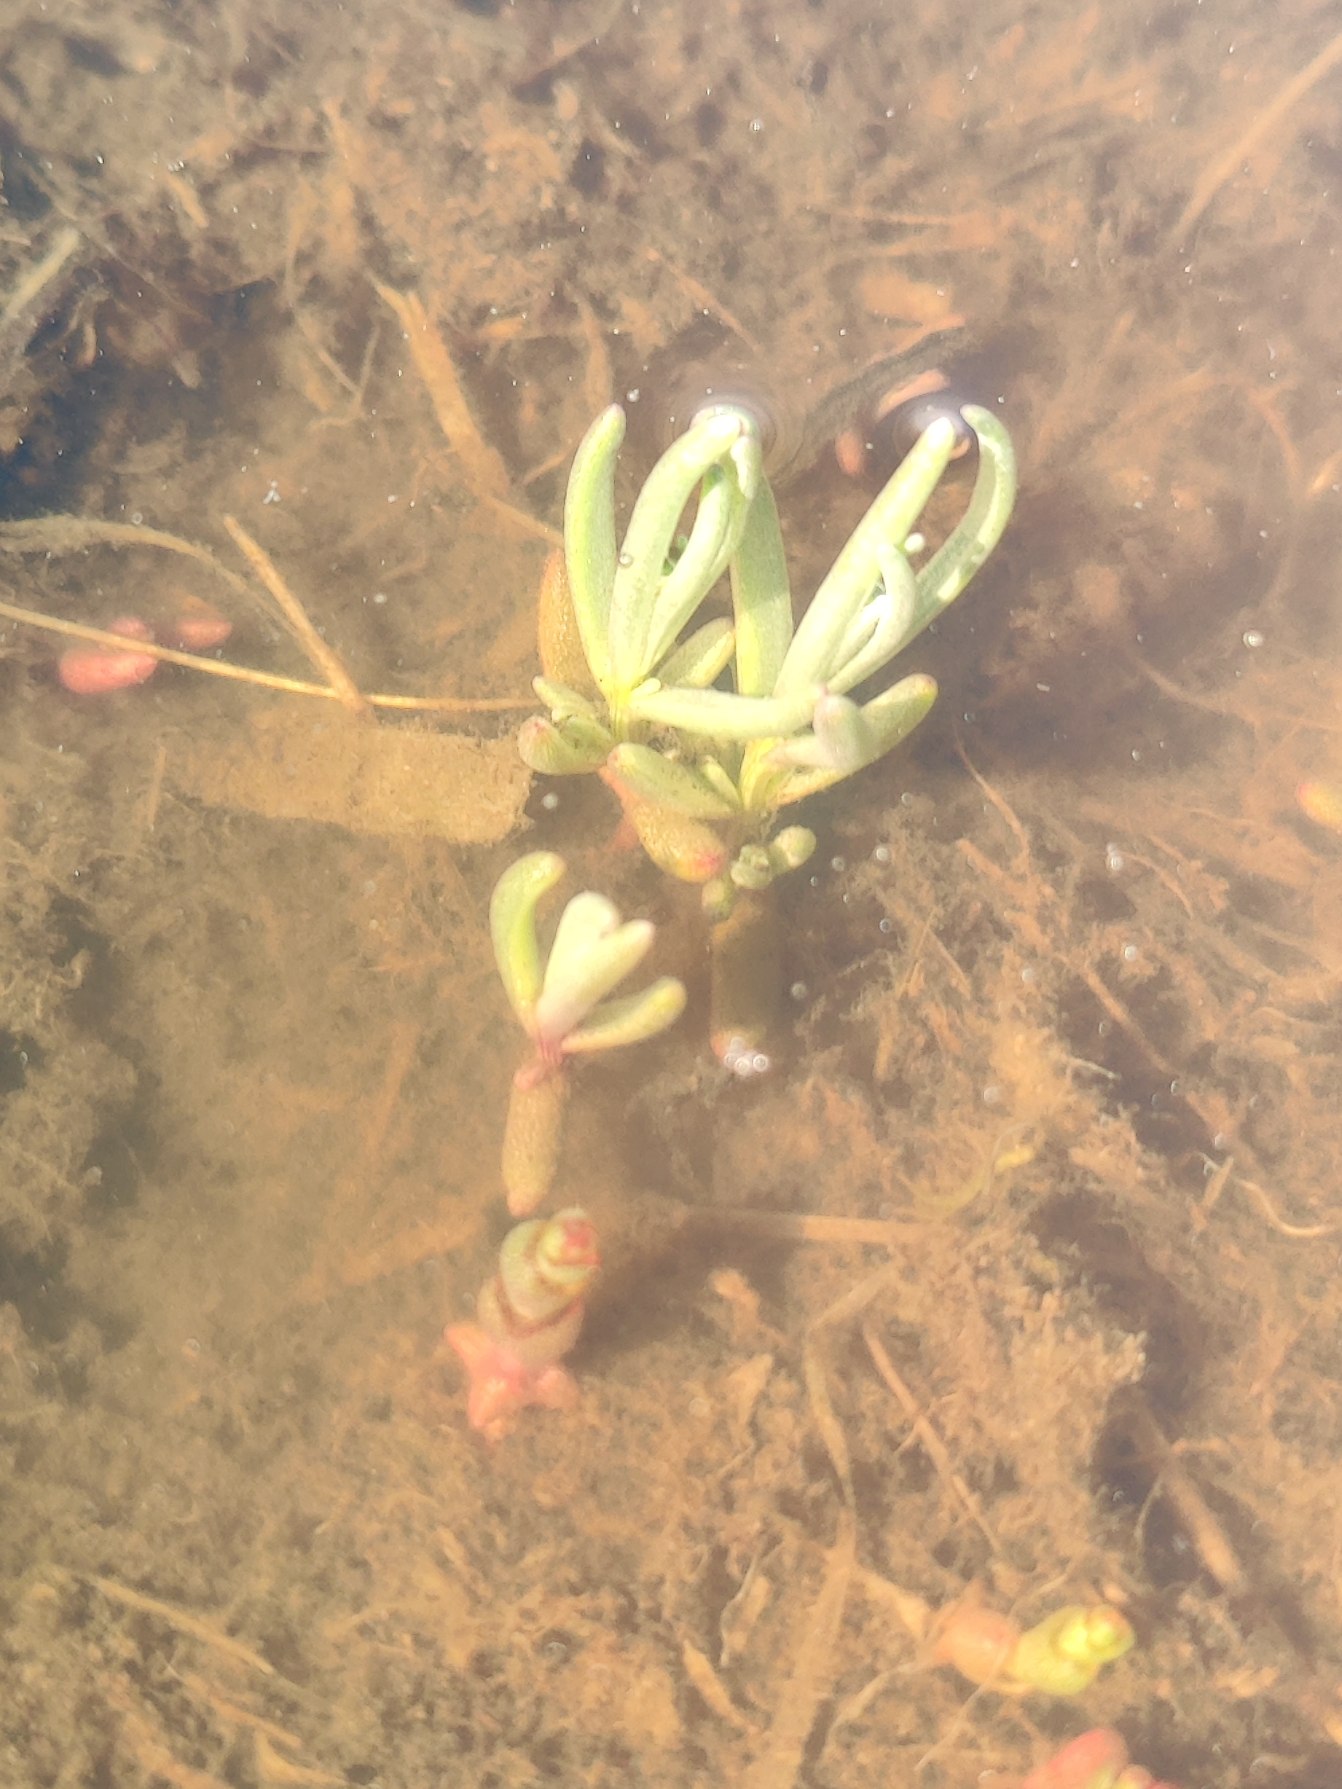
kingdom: Plantae
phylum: Tracheophyta
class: Magnoliopsida
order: Caryophyllales
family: Amaranthaceae
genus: Suaeda
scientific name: Suaeda maritima
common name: Strandgåsefod
